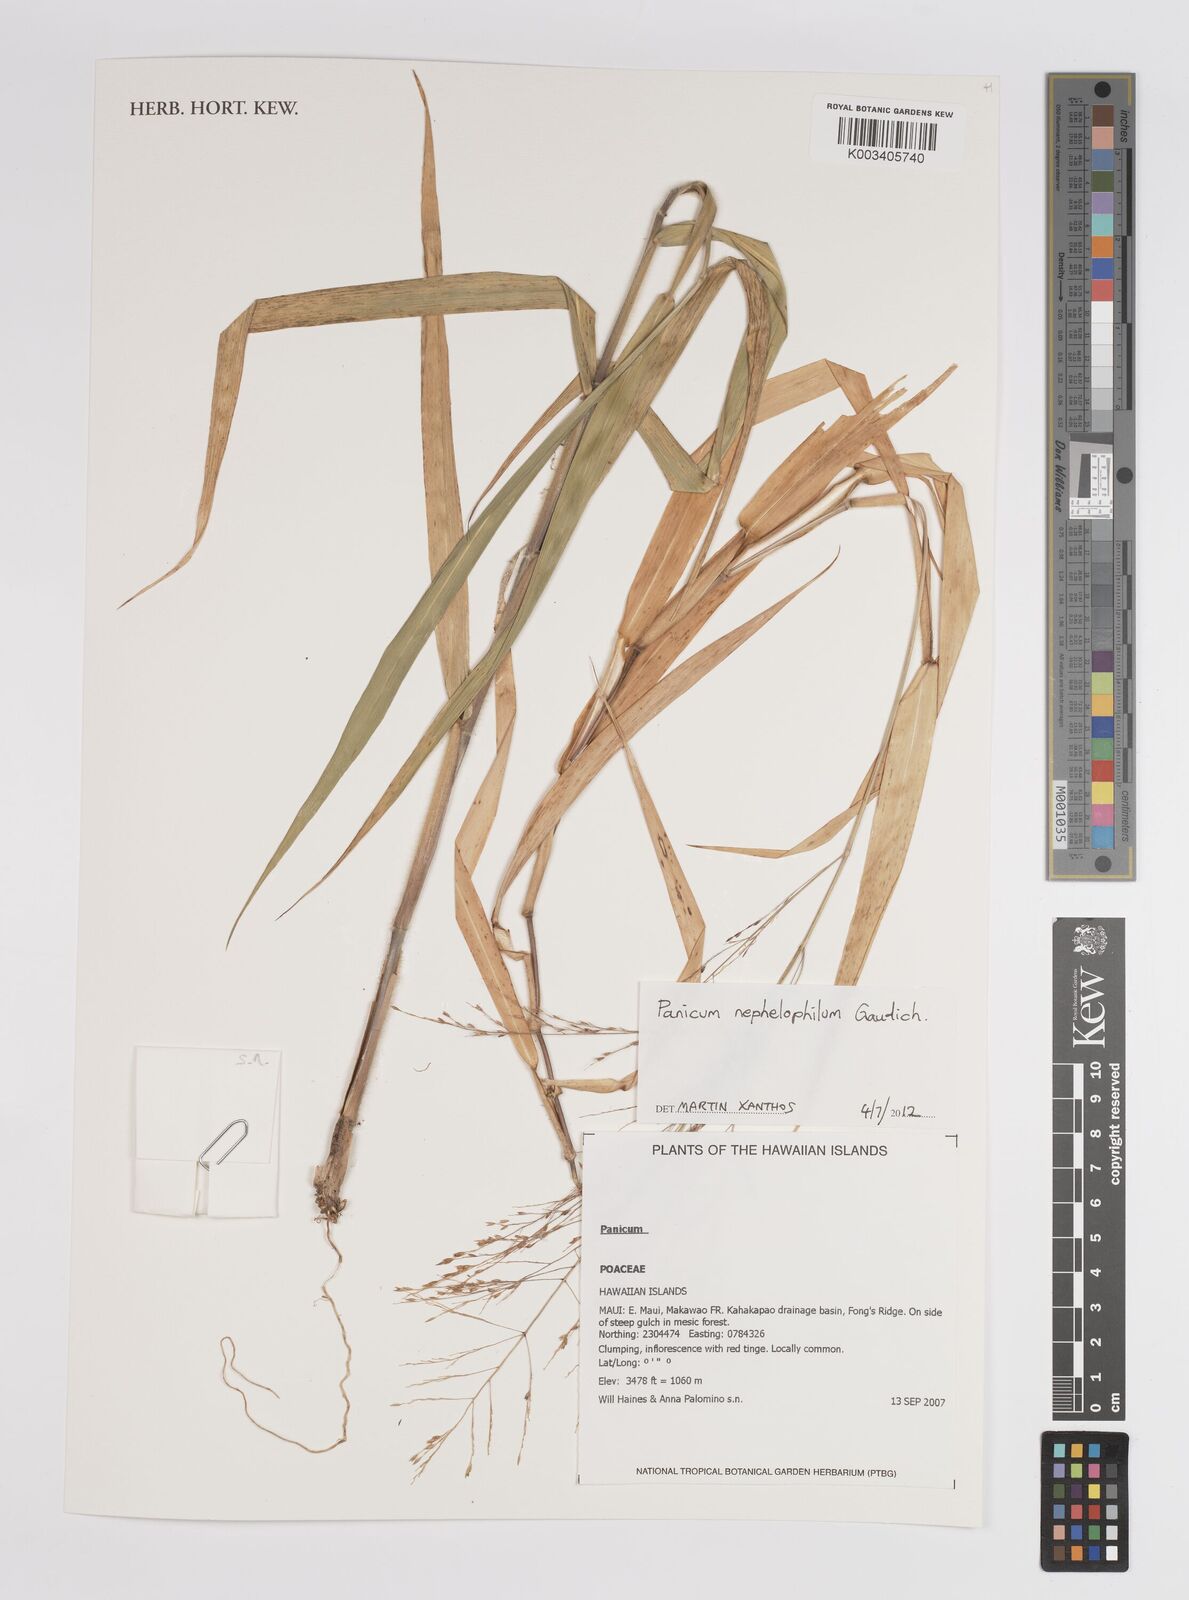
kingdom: Plantae
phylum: Tracheophyta
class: Liliopsida
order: Poales
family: Poaceae
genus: Panicum
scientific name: Panicum nephelophilum
